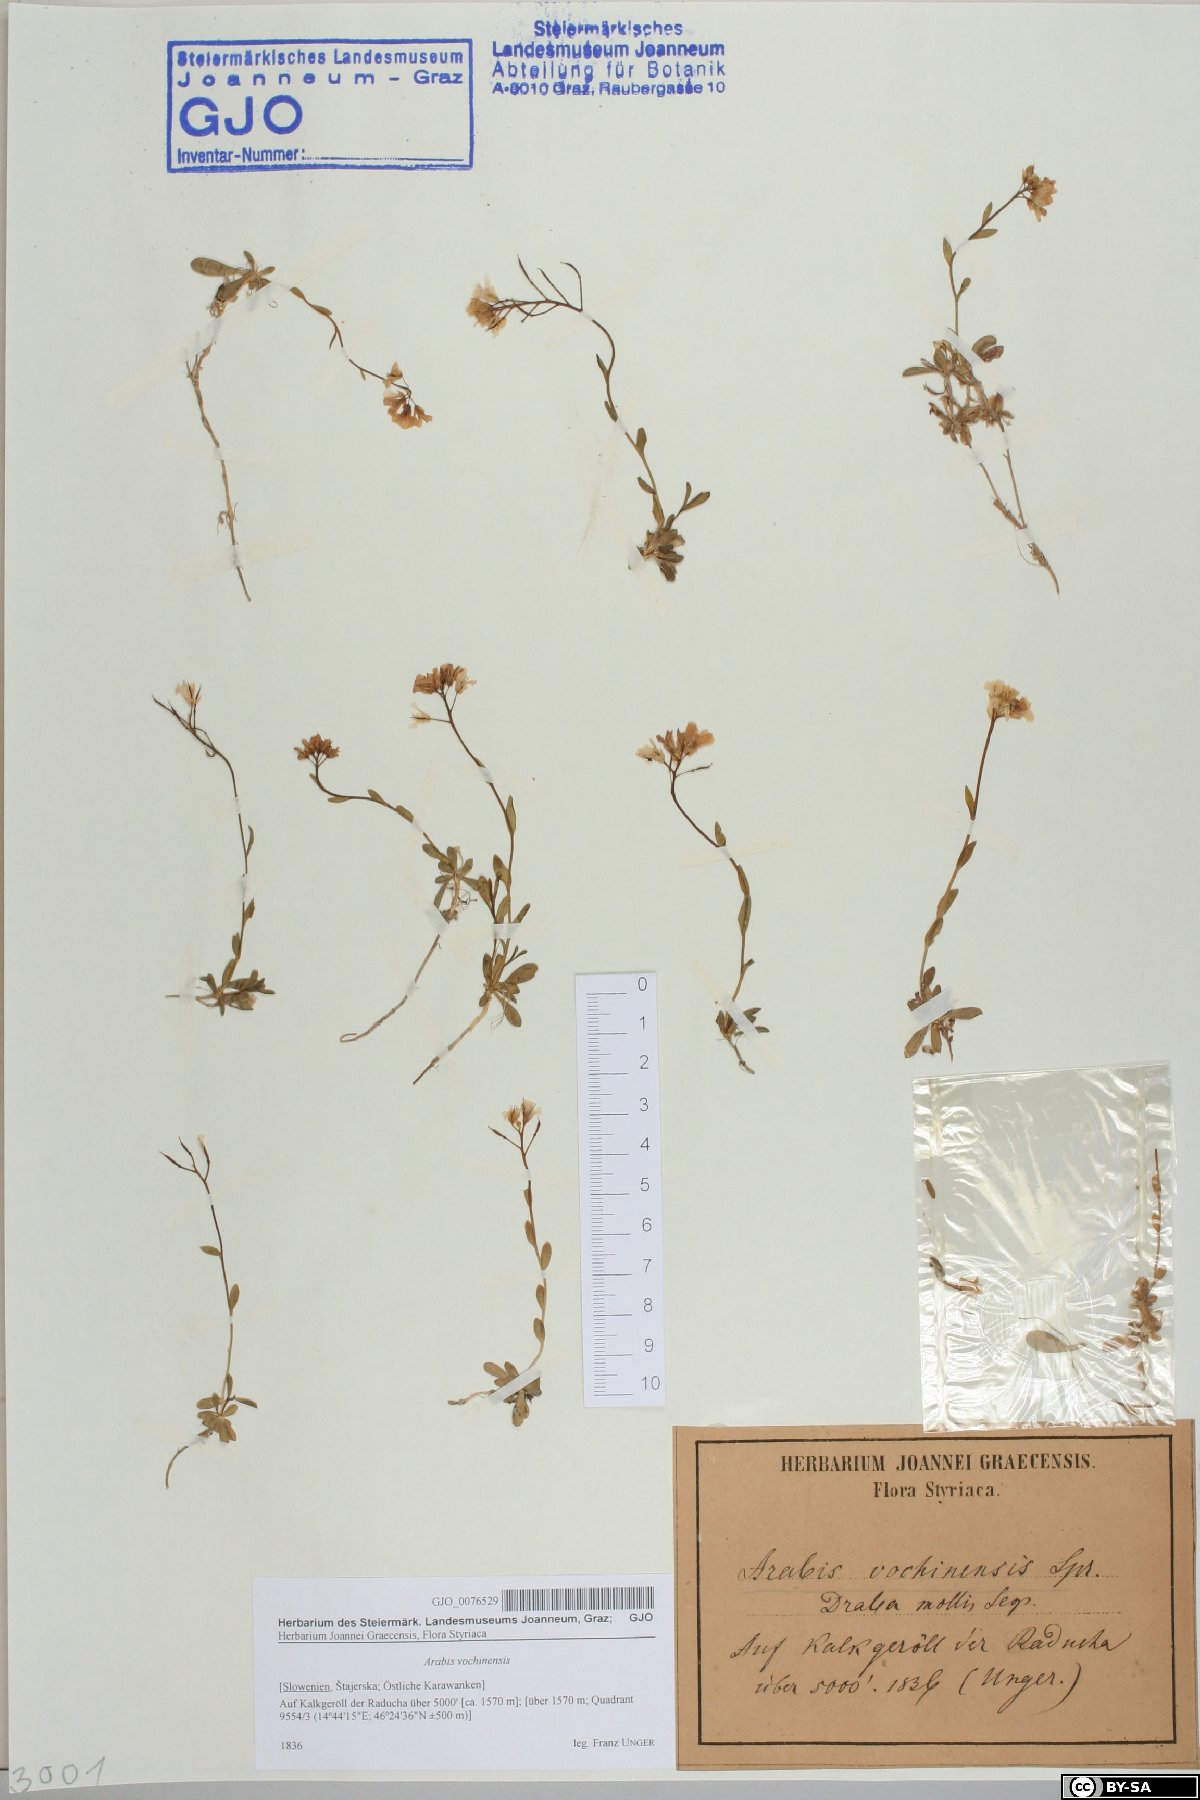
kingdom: Plantae
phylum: Tracheophyta
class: Magnoliopsida
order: Brassicales
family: Brassicaceae
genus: Arabis
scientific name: Arabis vochinensis
